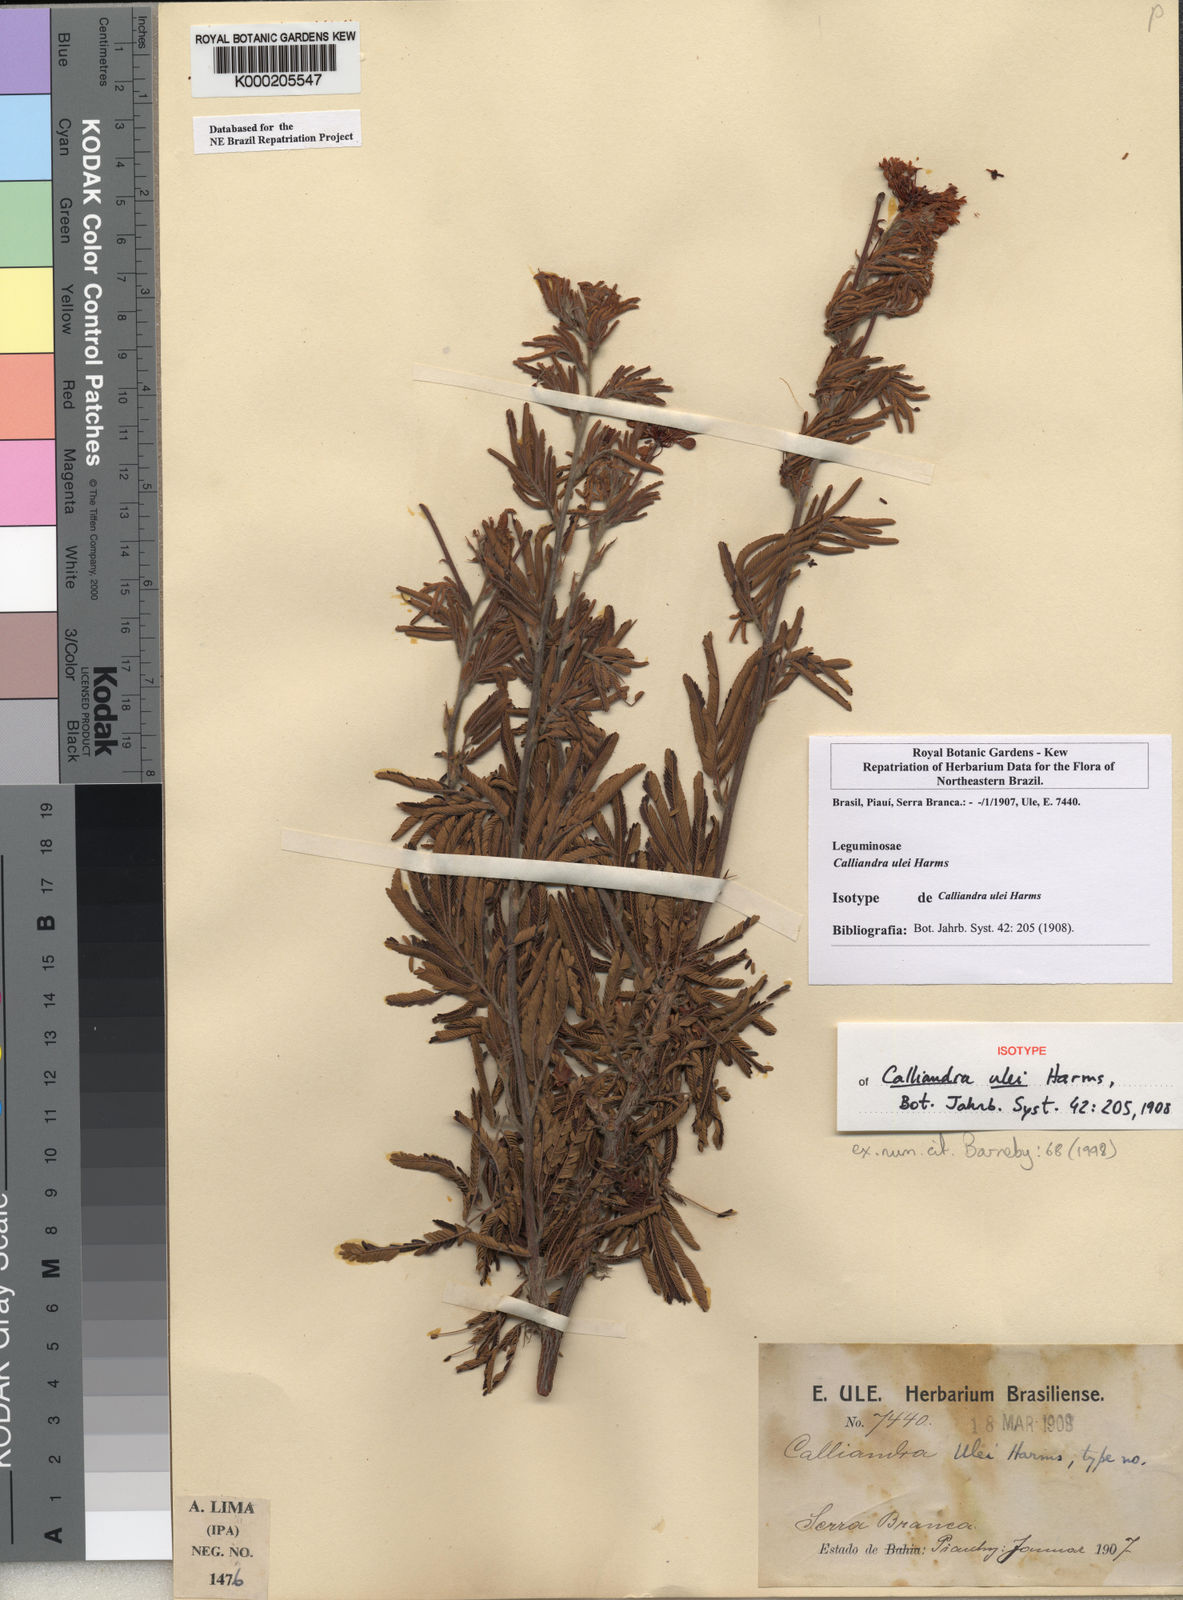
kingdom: Plantae
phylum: Tracheophyta
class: Magnoliopsida
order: Fabales
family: Fabaceae
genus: Calliandra
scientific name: Calliandra ulei
